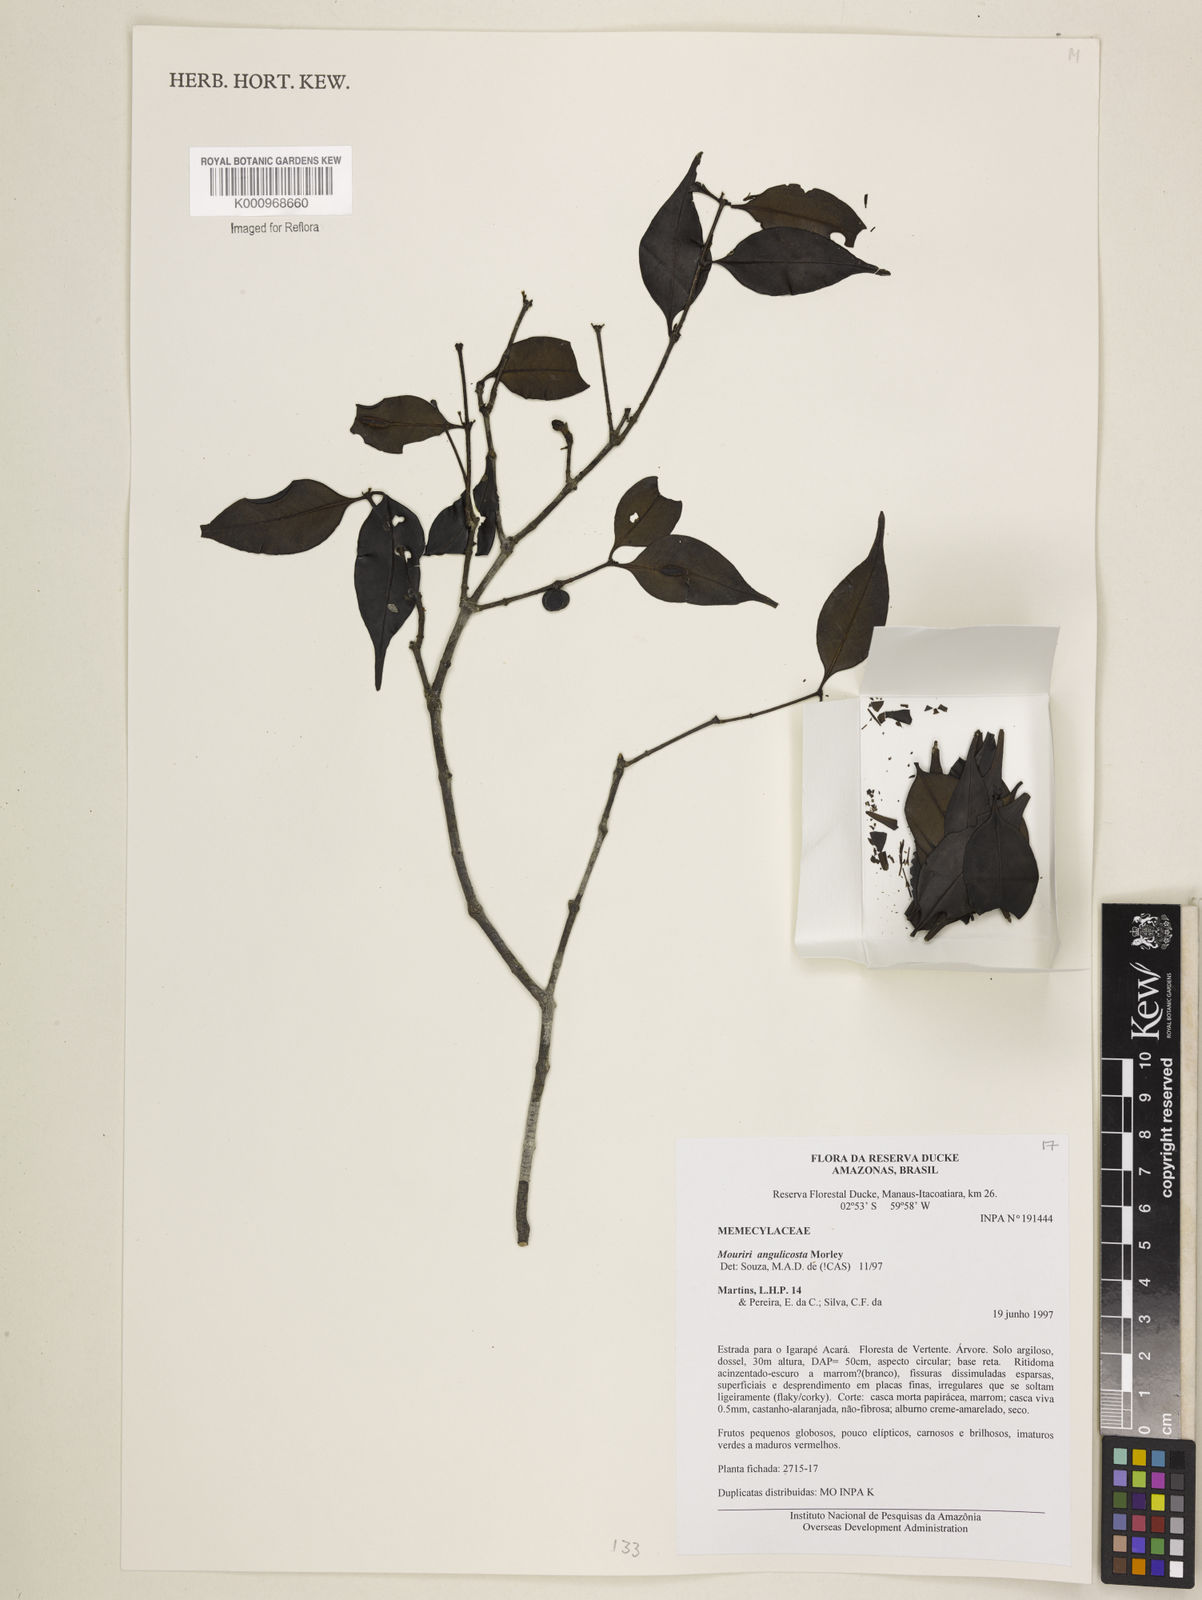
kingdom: Plantae
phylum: Tracheophyta
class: Magnoliopsida
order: Myrtales
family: Melastomataceae
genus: Mouriri
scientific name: Mouriri angulicosta
